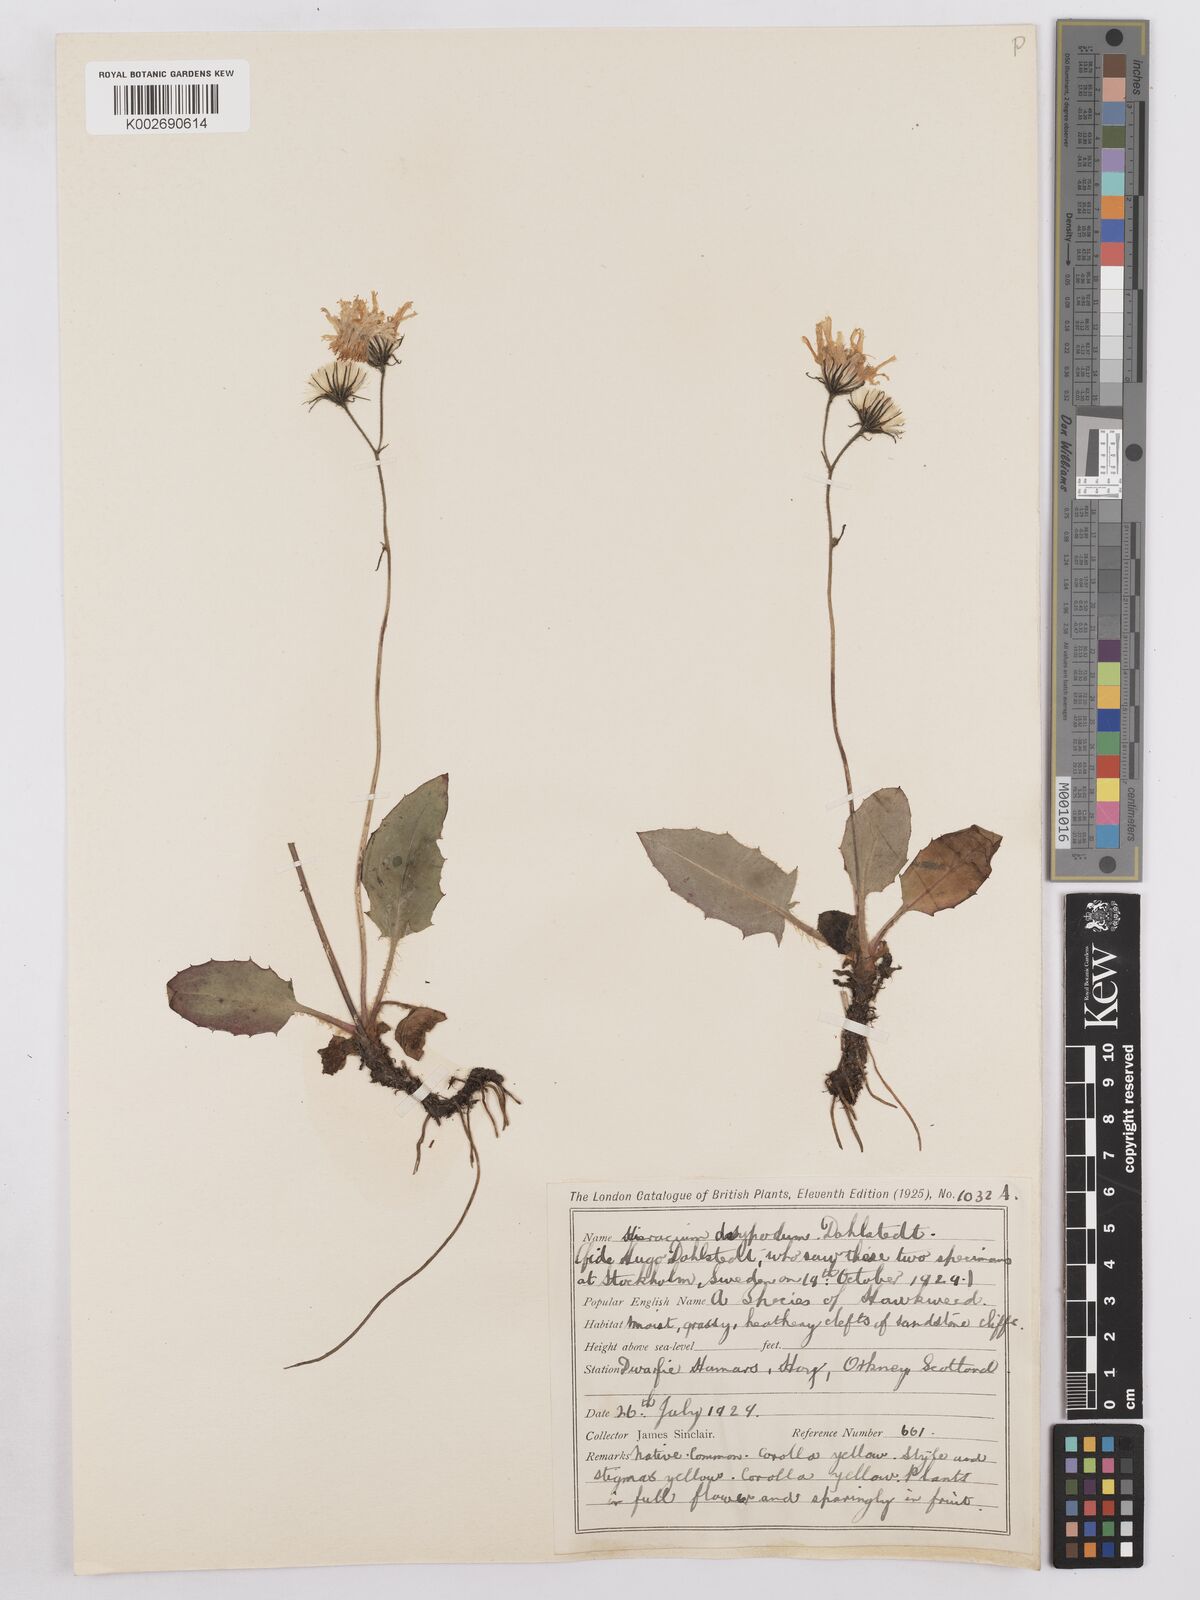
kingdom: Plantae
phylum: Tracheophyta
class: Magnoliopsida
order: Asterales
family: Asteraceae
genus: Hieracium
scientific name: Hieracium sarcophylloides
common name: Fleshy-leaved hawkweed
